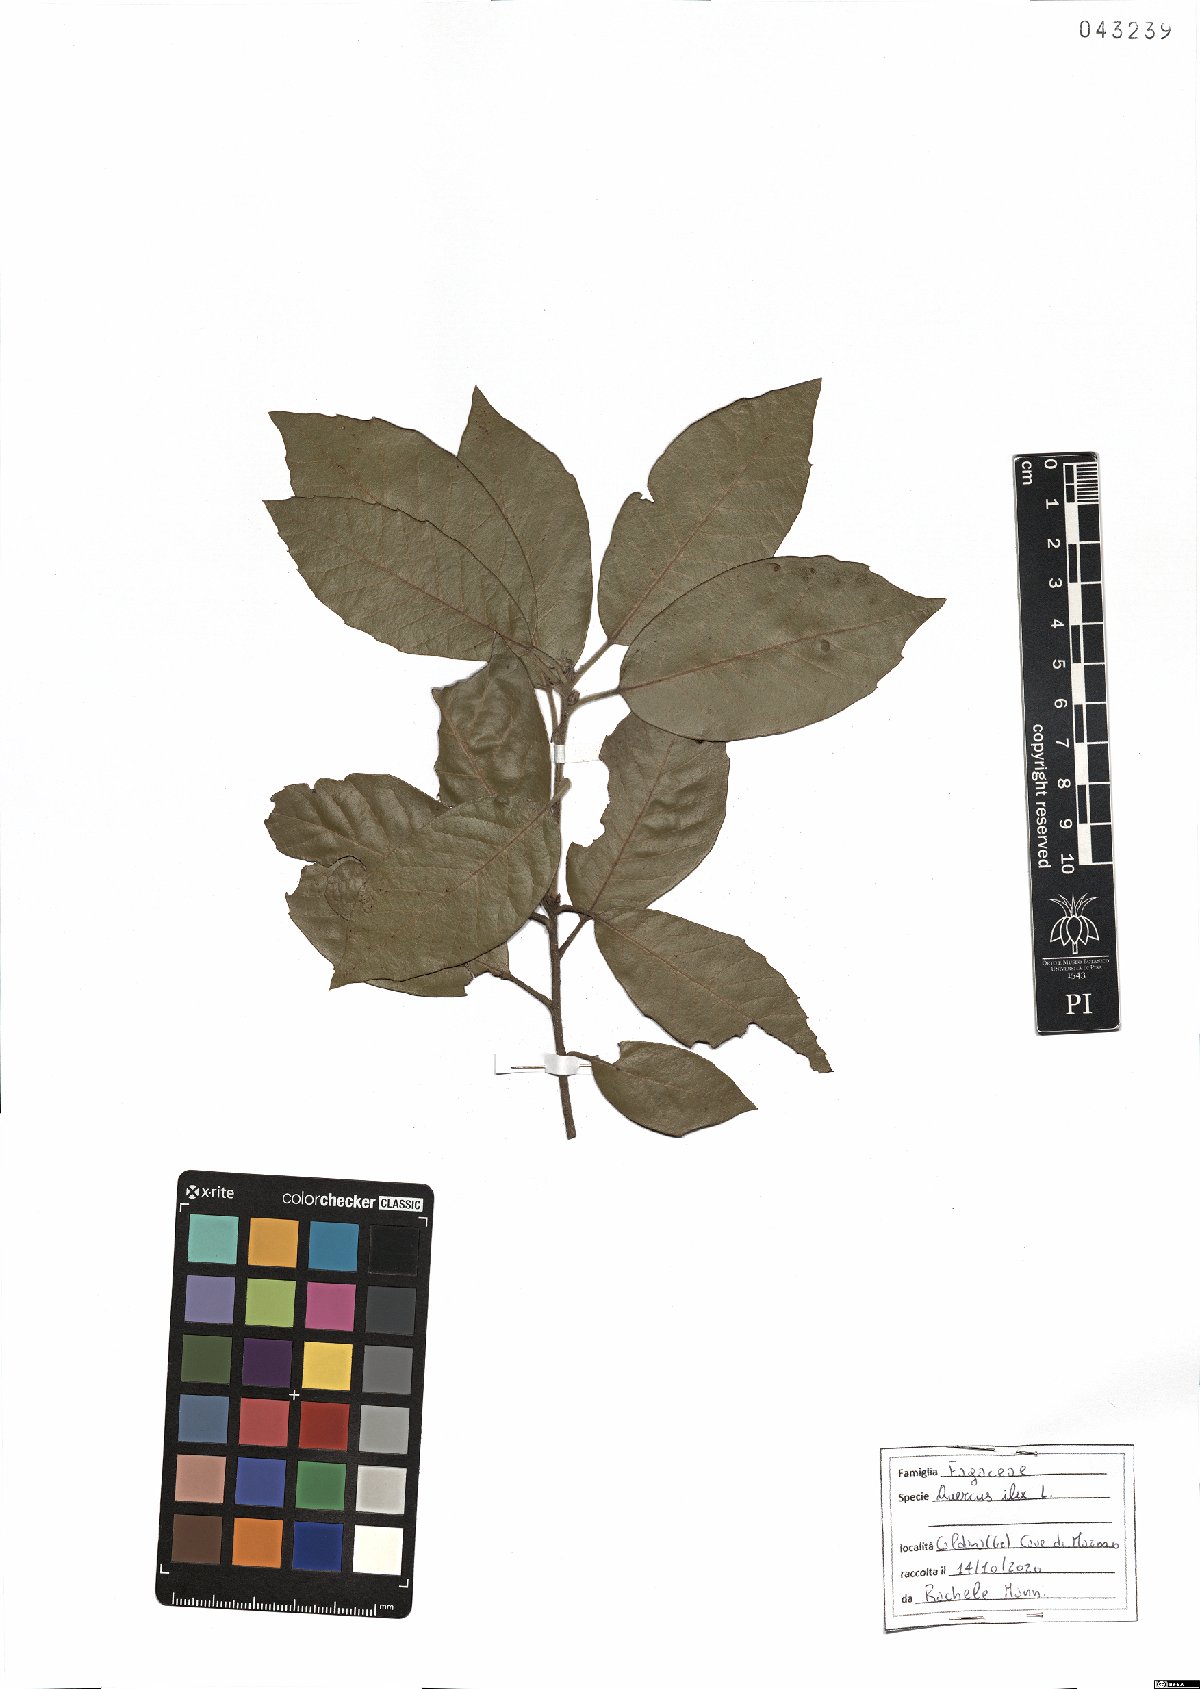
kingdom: Plantae
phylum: Tracheophyta
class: Magnoliopsida
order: Fagales
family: Fagaceae
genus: Quercus
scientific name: Quercus ilex
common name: Evergreen oak
